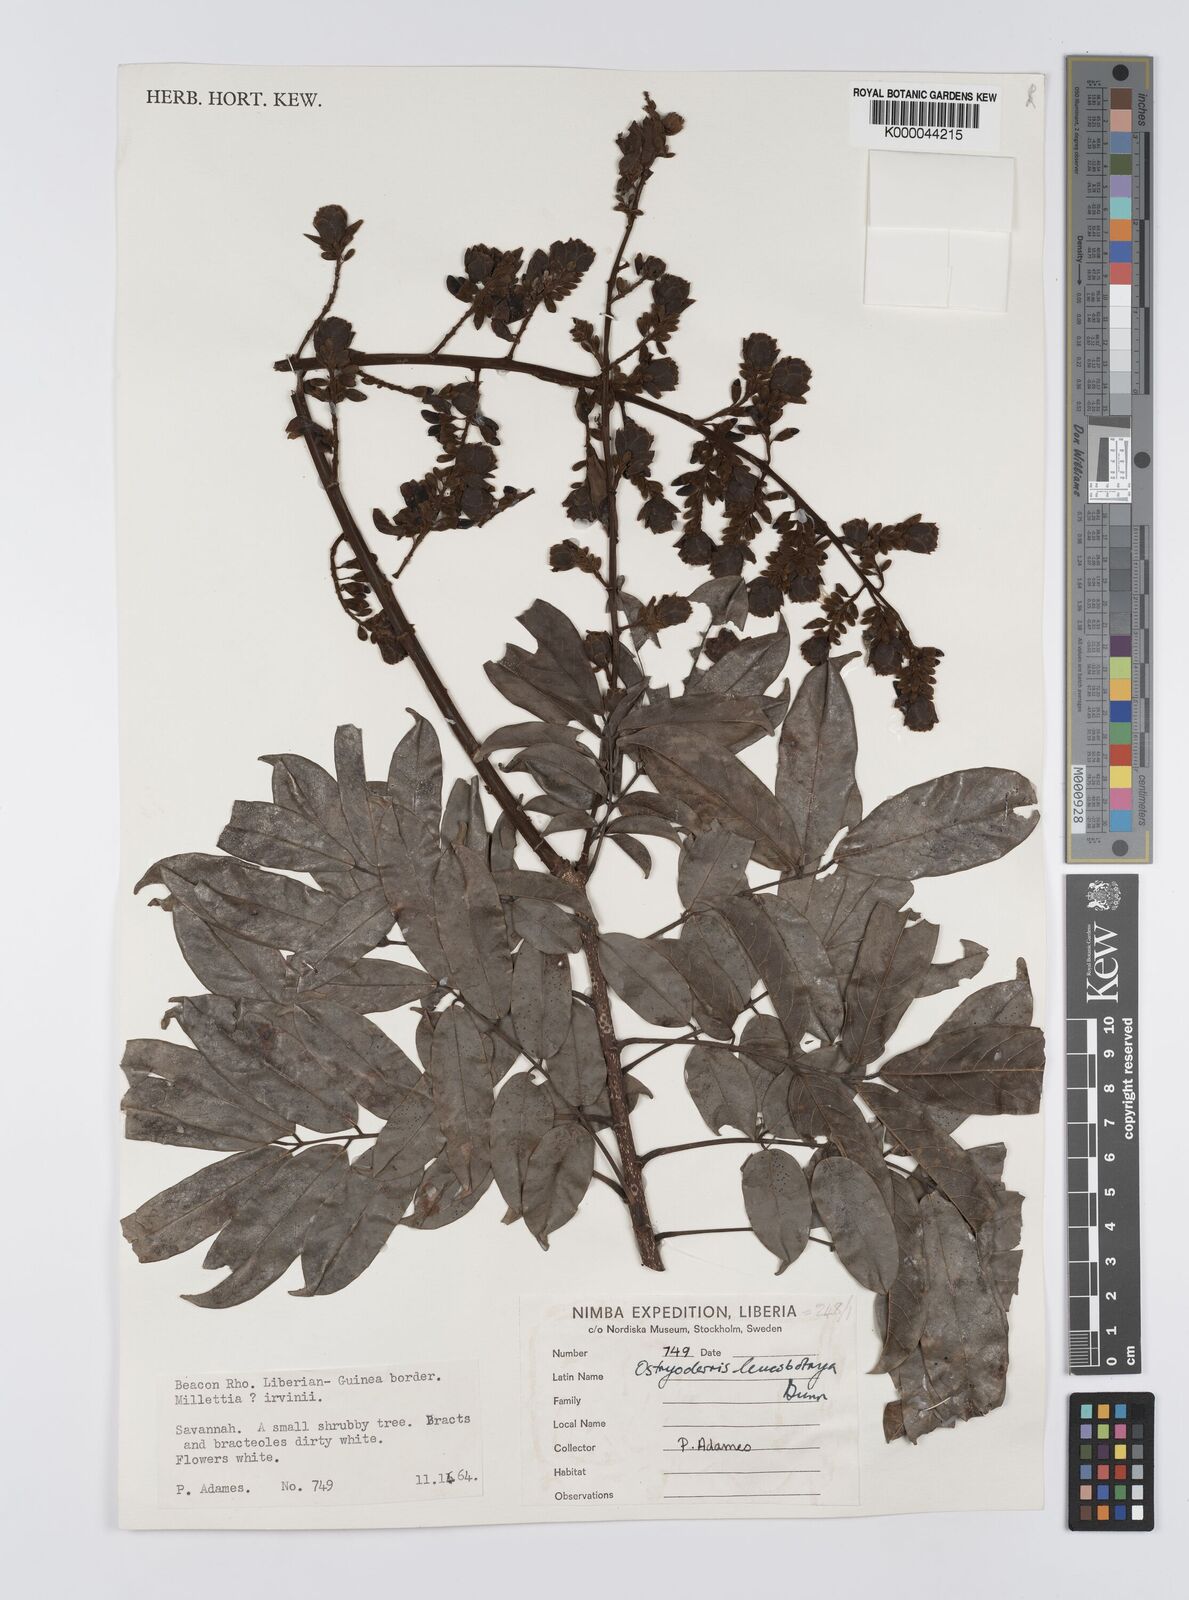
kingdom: Plantae
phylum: Tracheophyta
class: Magnoliopsida
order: Fabales
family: Fabaceae
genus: Aganope
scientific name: Aganope leucobotrya
